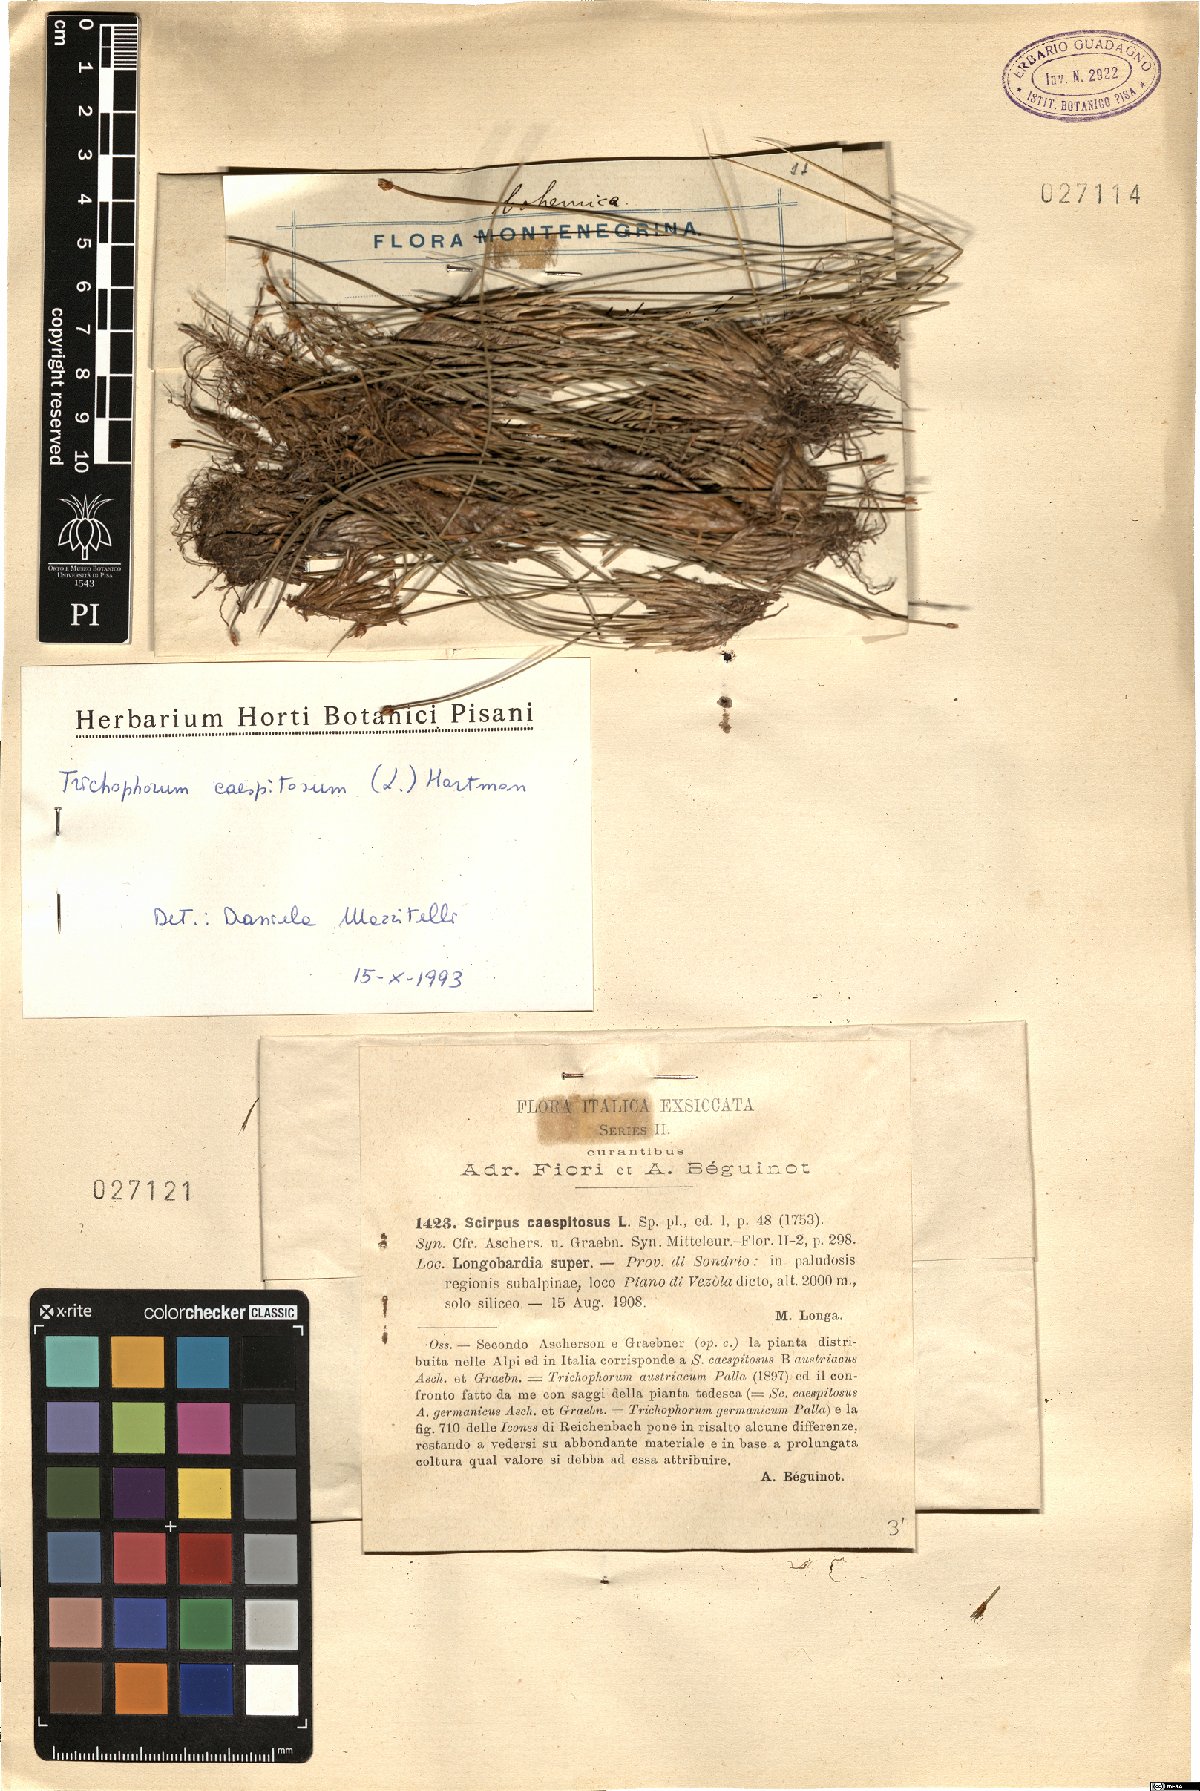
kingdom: Plantae
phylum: Tracheophyta
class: Liliopsida
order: Poales
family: Cyperaceae
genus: Trichophorum
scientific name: Trichophorum cespitosum
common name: Cespitose bulrush
